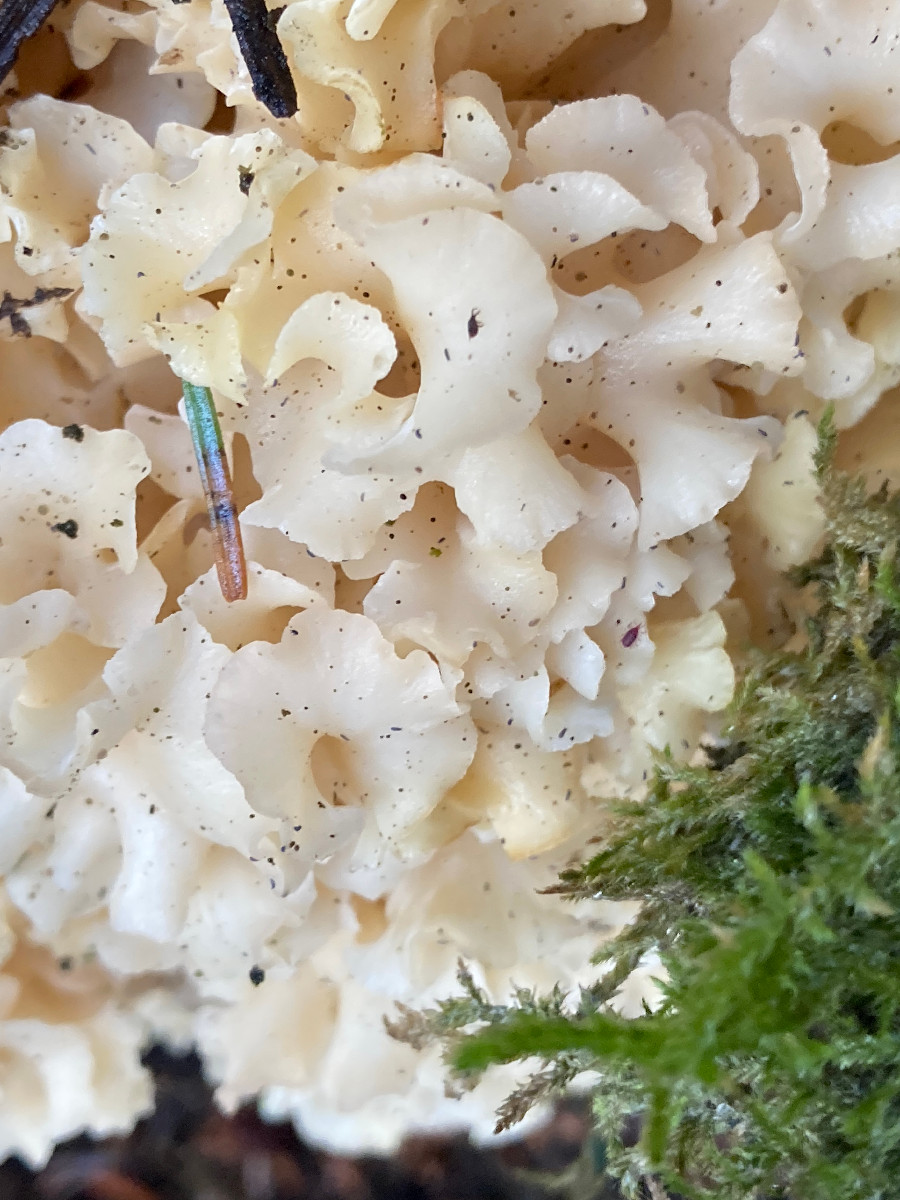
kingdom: Fungi
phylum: Basidiomycota
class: Agaricomycetes
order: Polyporales
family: Sparassidaceae
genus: Sparassis
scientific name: Sparassis crispa
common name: kruset blomkålssvamp
